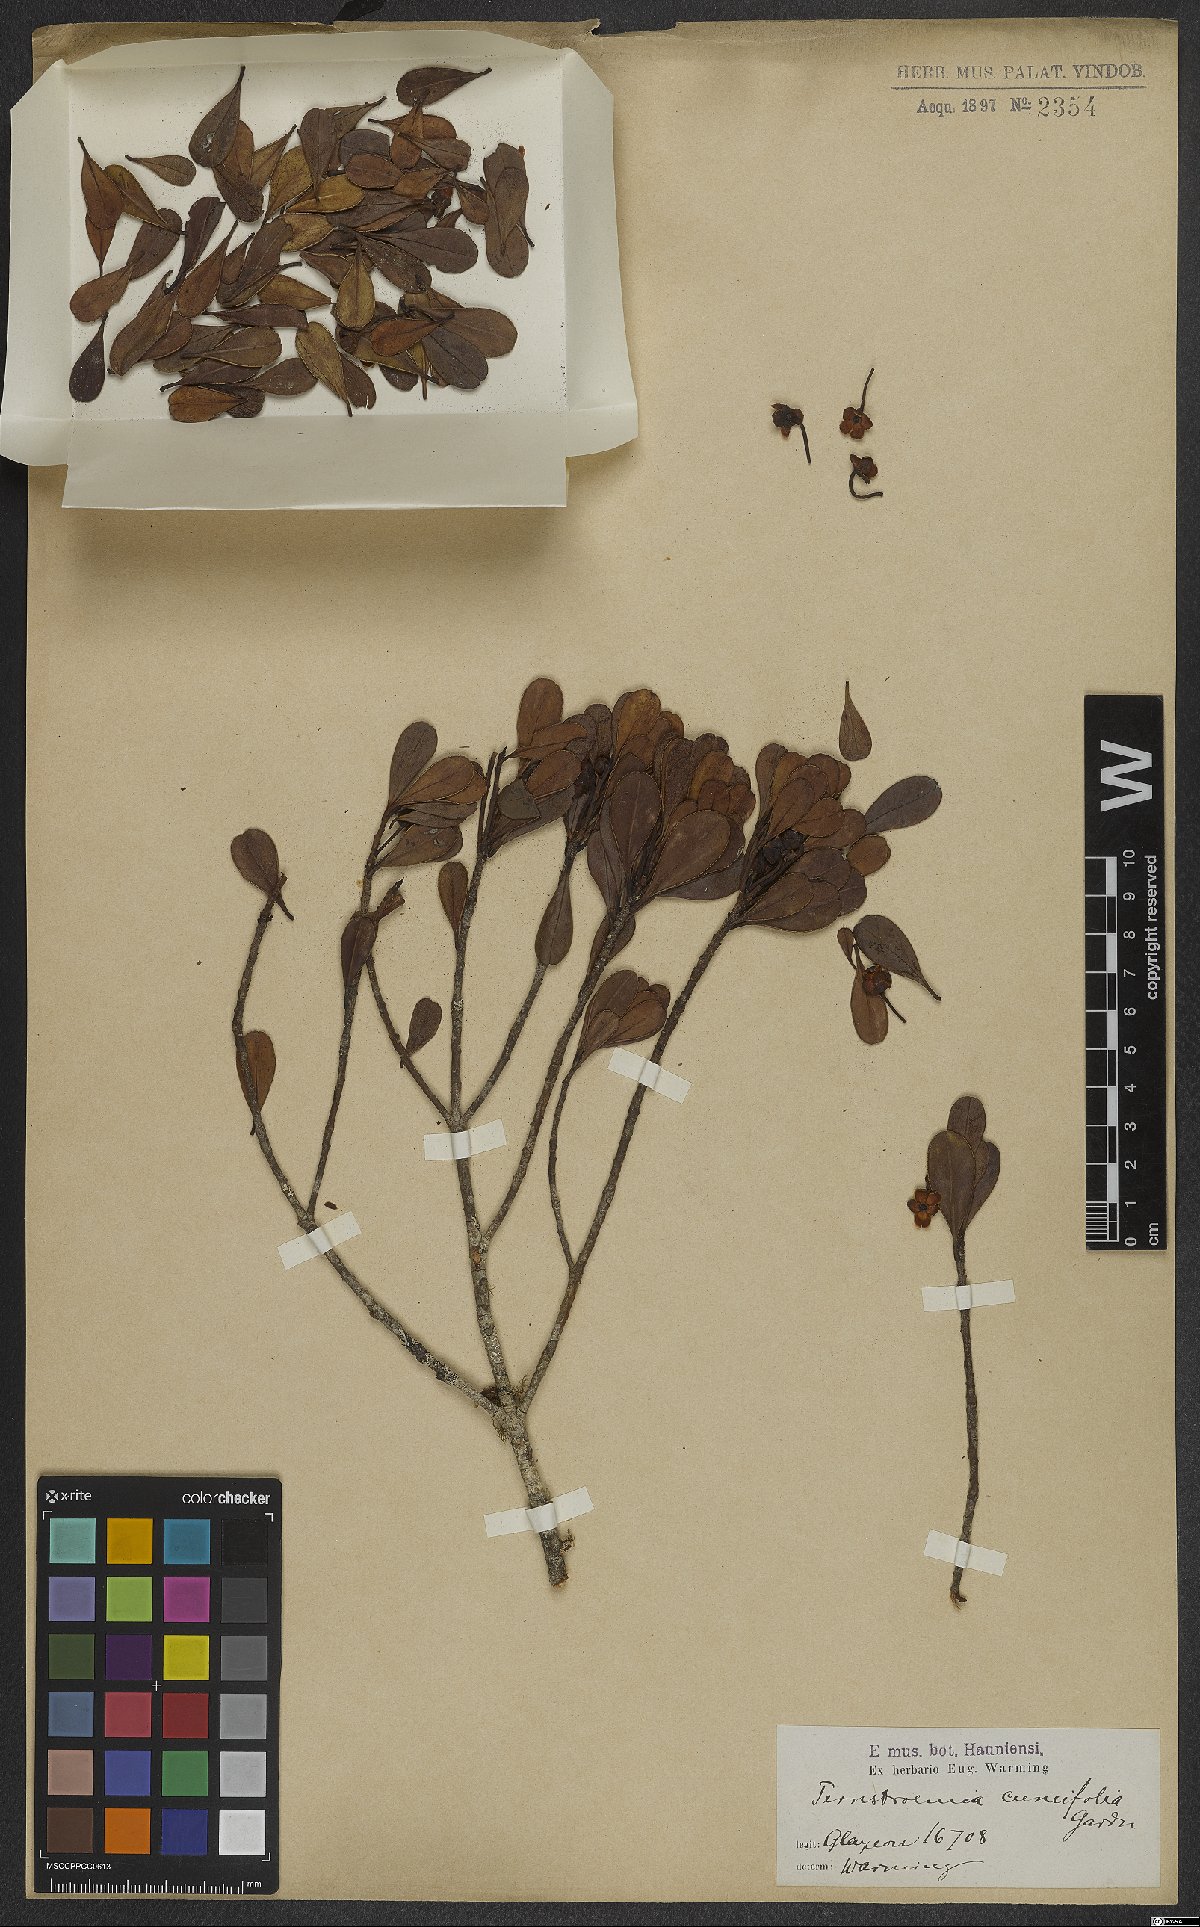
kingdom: Plantae
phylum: Tracheophyta
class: Magnoliopsida
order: Ericales
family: Pentaphylacaceae
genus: Ternstroemia
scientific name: Ternstroemia cuneifolia
